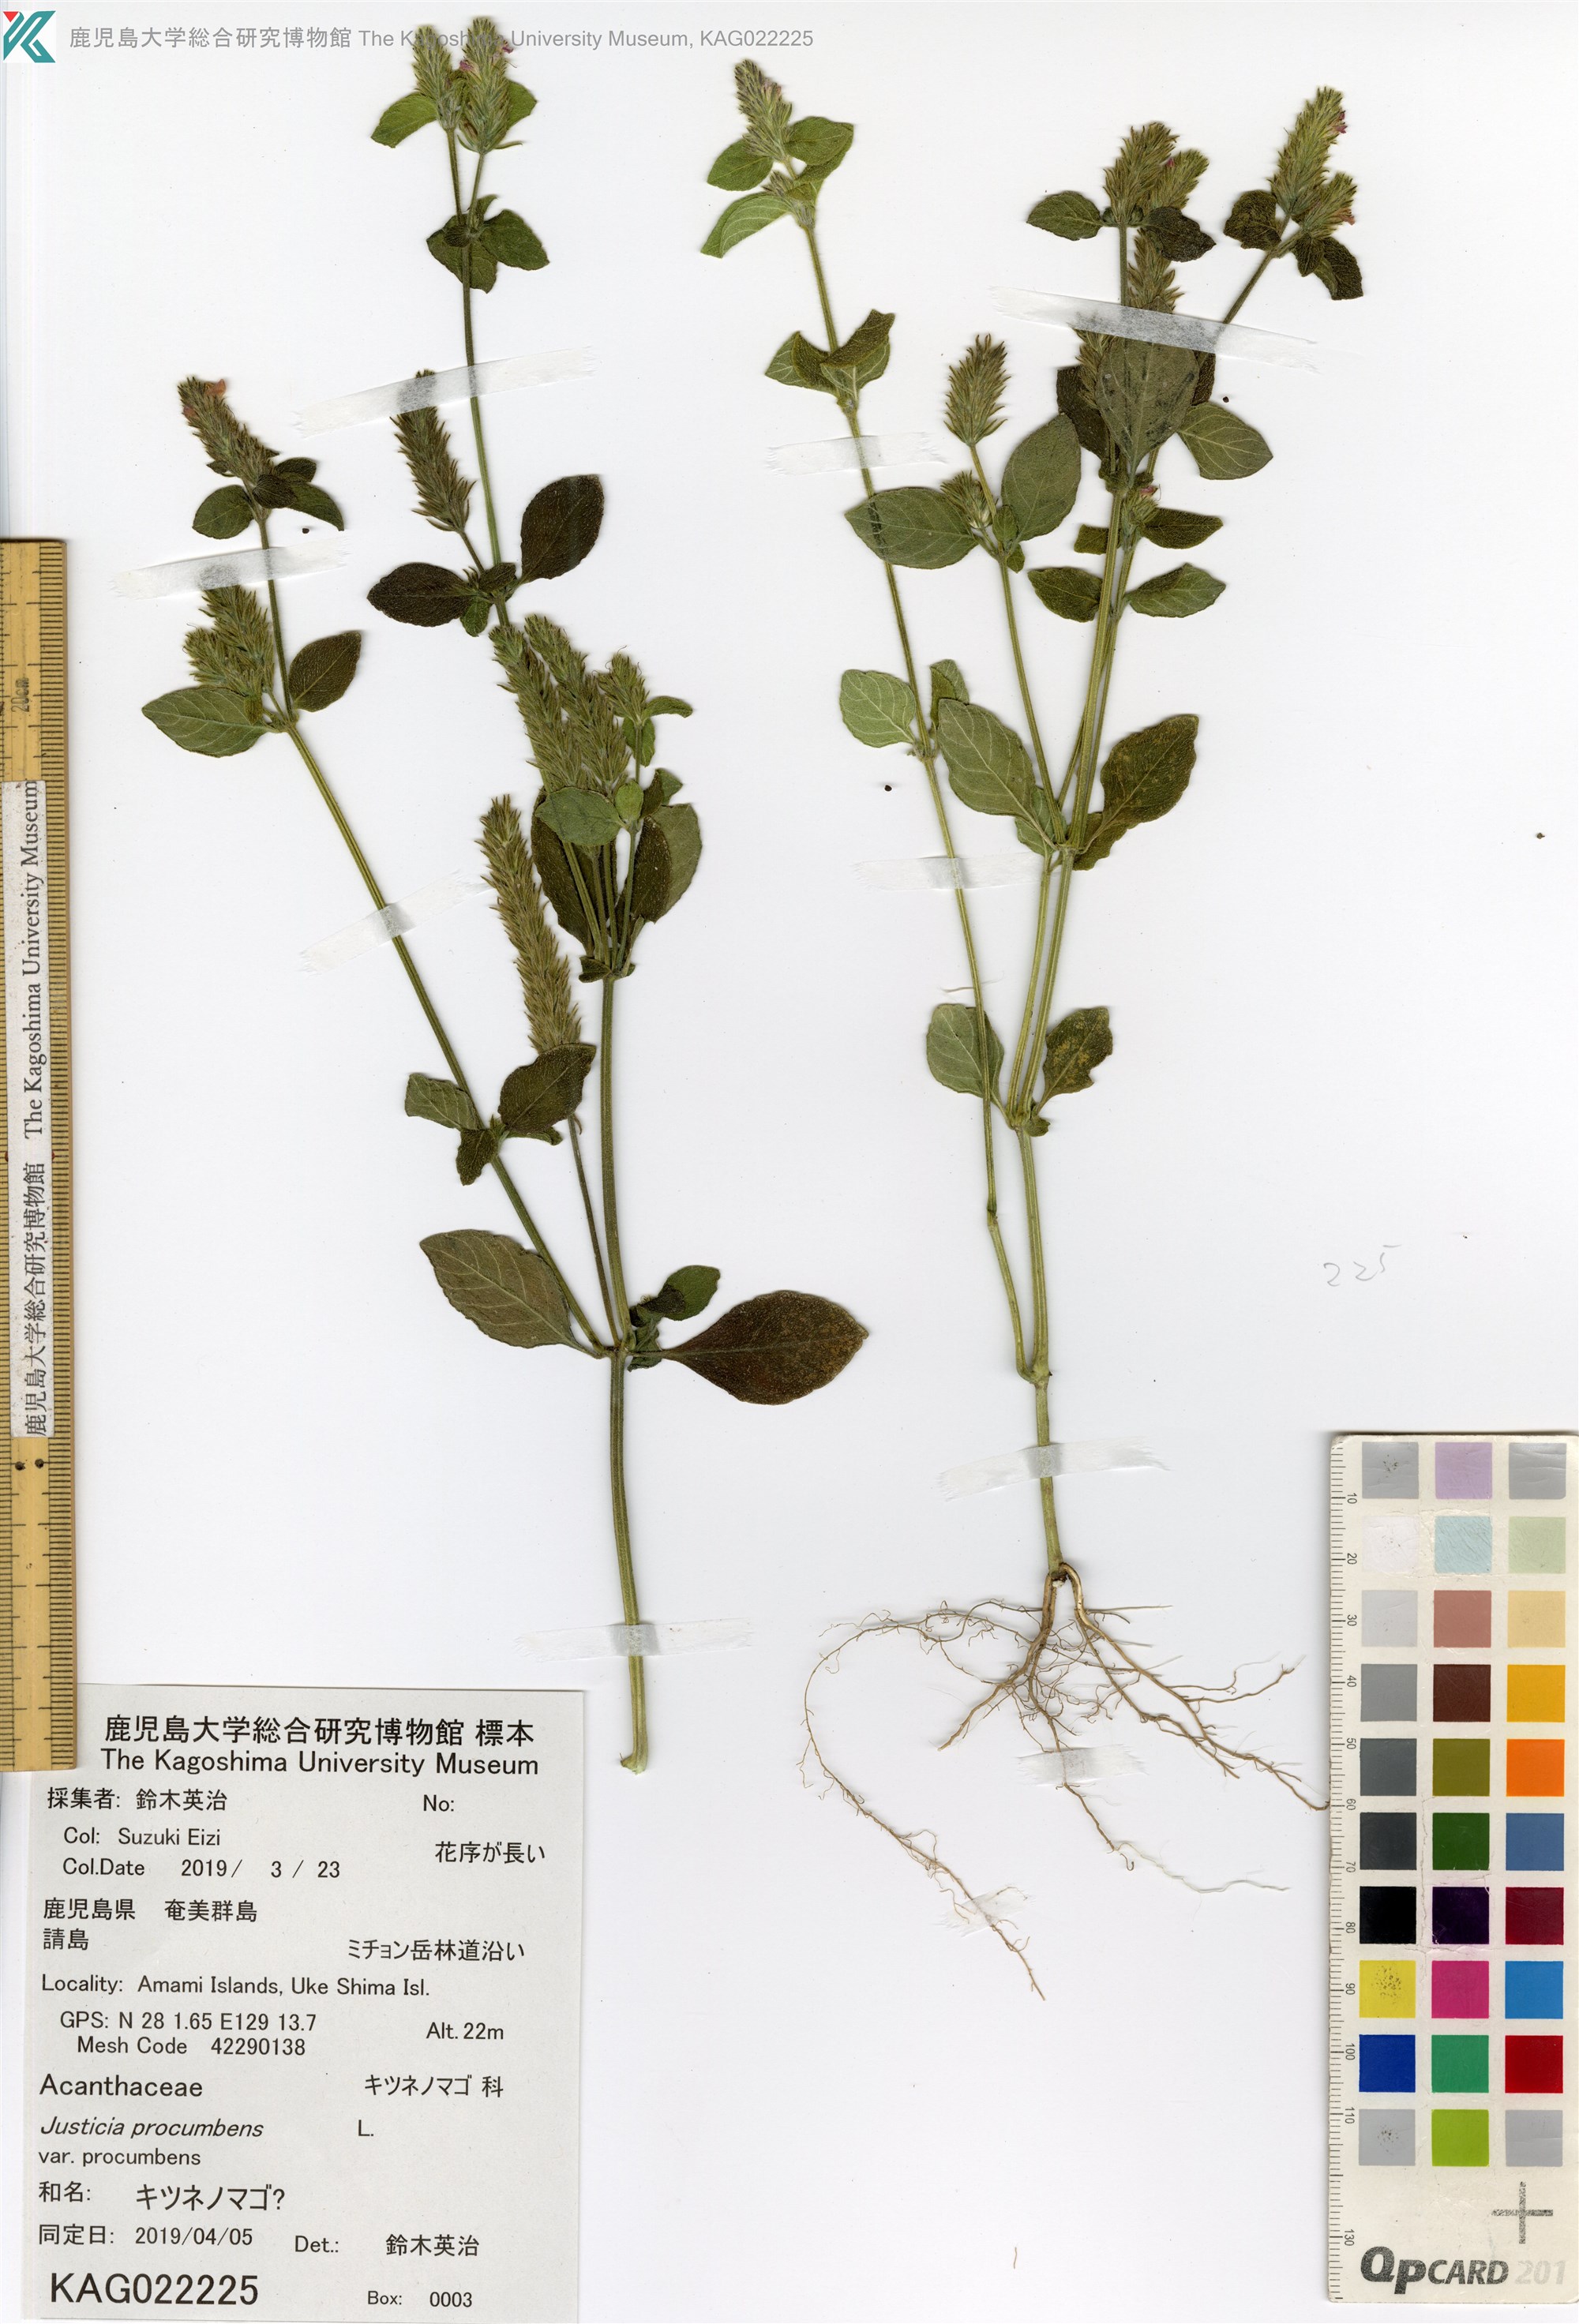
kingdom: Plantae
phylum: Tracheophyta
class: Magnoliopsida
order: Lamiales
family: Acanthaceae
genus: Rostellularia
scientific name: Rostellularia procumbens
